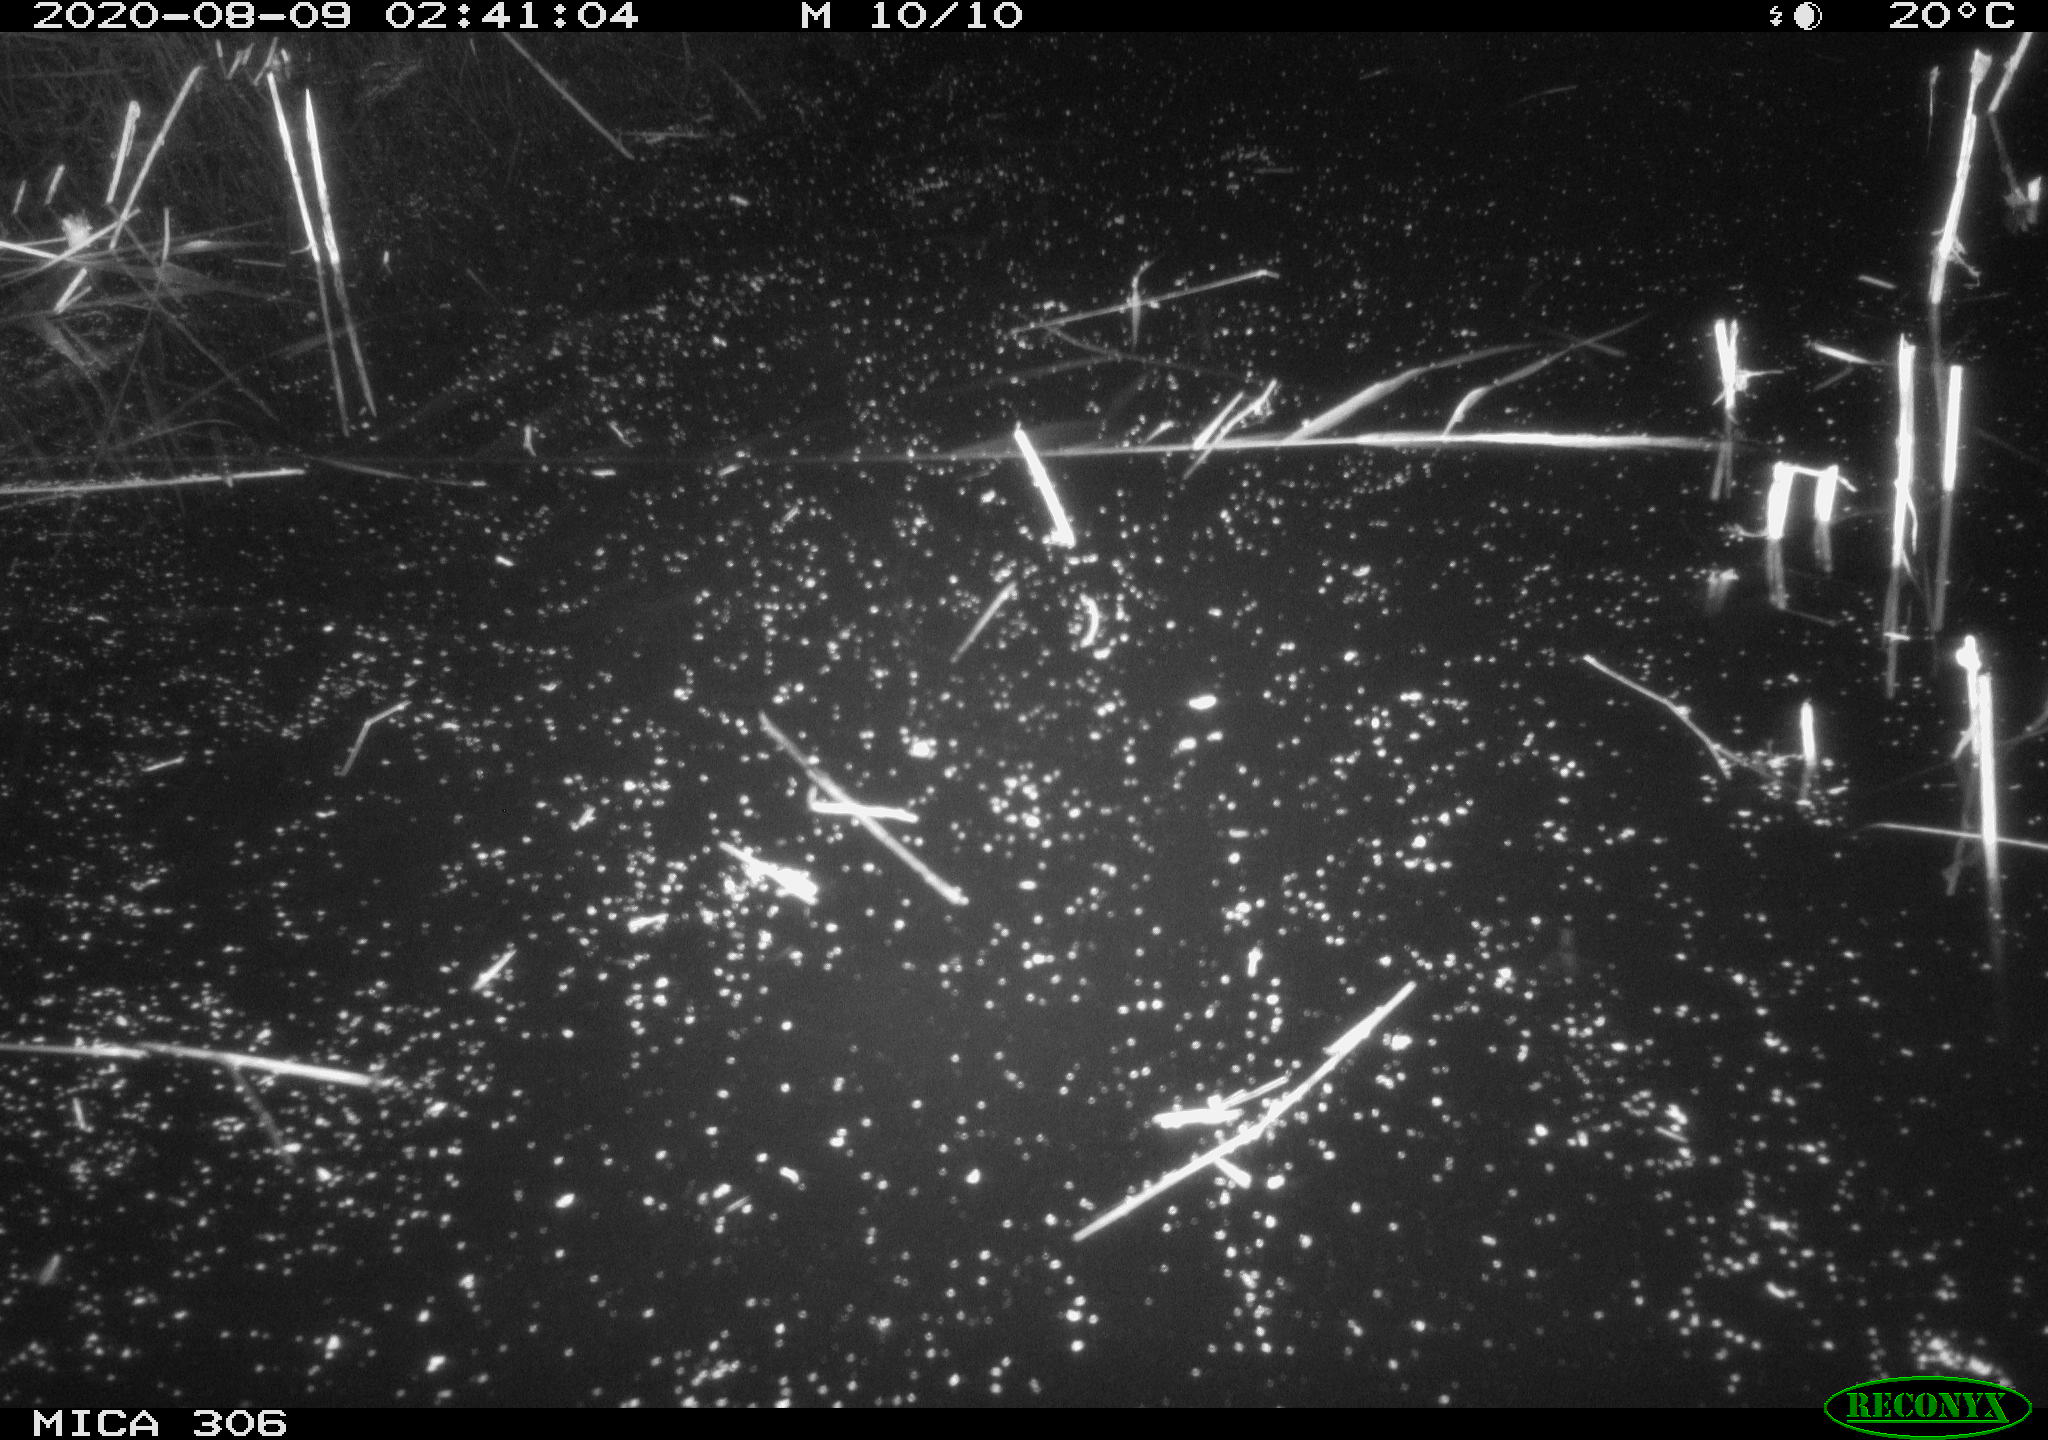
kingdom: Animalia
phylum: Chordata
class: Aves
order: Gruiformes
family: Rallidae
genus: Fulica
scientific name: Fulica atra
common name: Eurasian coot
